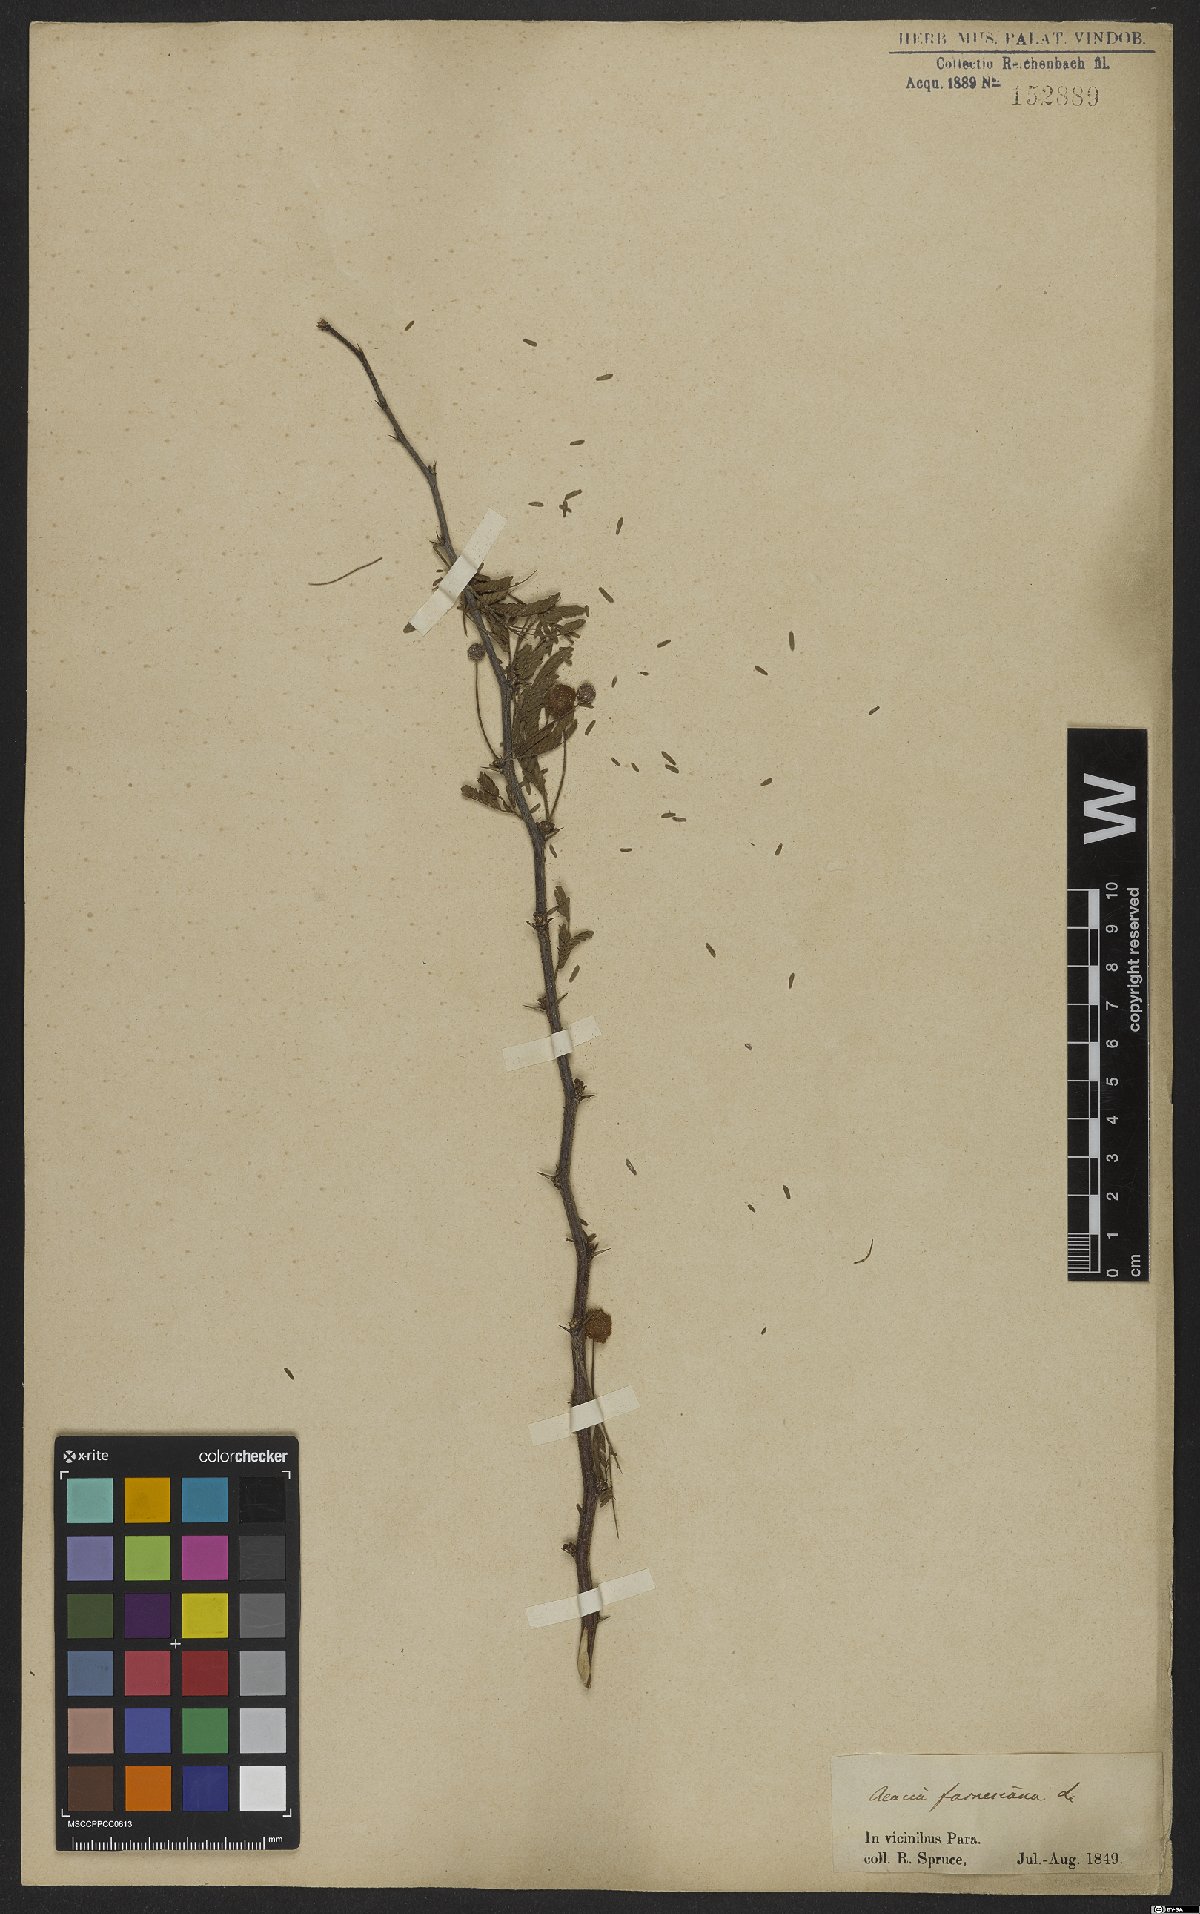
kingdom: Plantae
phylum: Tracheophyta
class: Magnoliopsida
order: Fabales
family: Fabaceae
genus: Vachellia
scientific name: Vachellia farnesiana
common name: Sweet acacia
